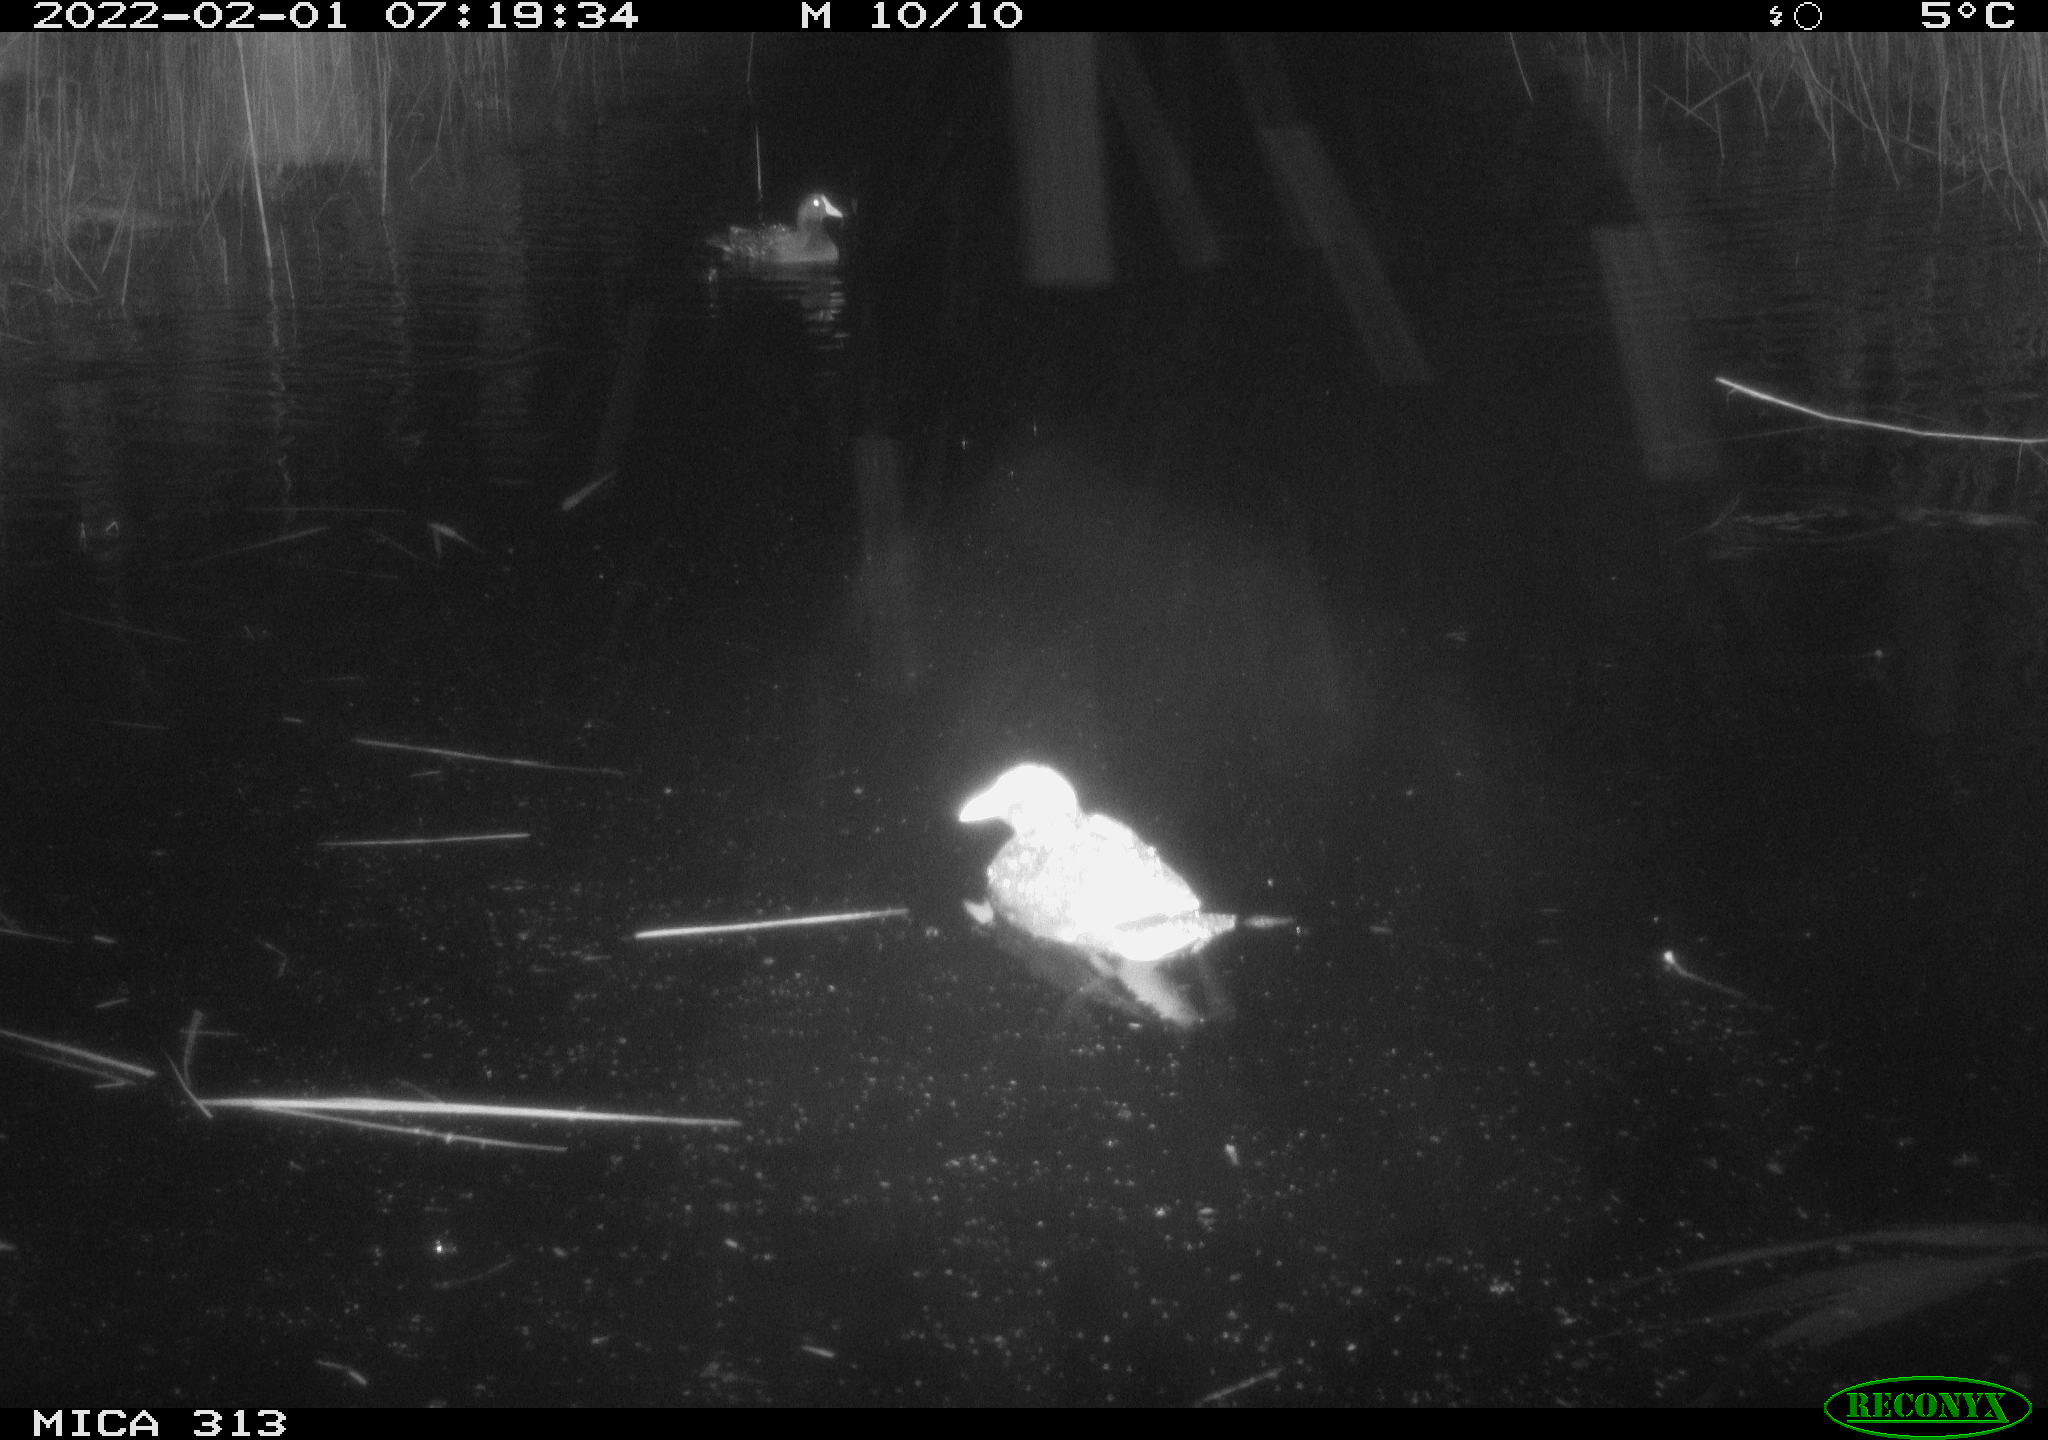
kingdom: Animalia
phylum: Chordata
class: Aves
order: Gruiformes
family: Rallidae
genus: Gallinula
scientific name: Gallinula chloropus
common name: Common moorhen
